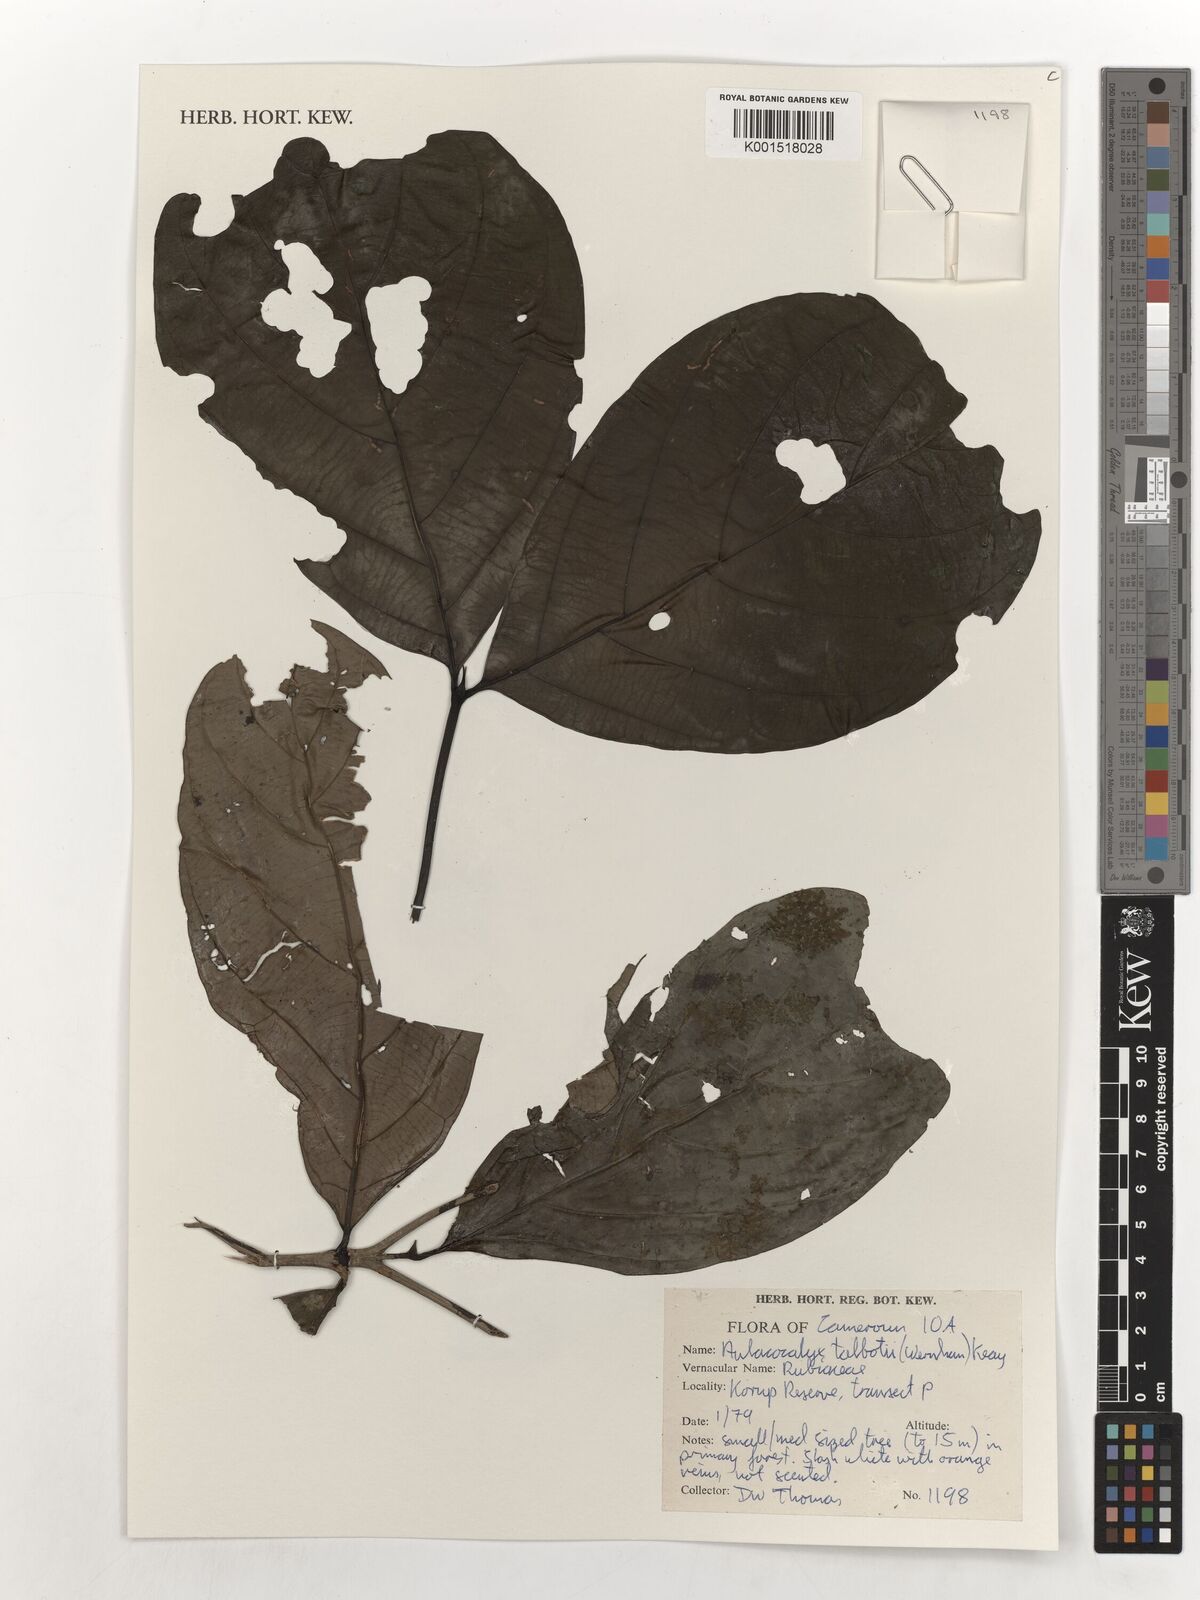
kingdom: Plantae
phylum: Tracheophyta
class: Magnoliopsida
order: Gentianales
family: Rubiaceae
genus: Aulacocalyx
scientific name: Aulacocalyx talbotii
